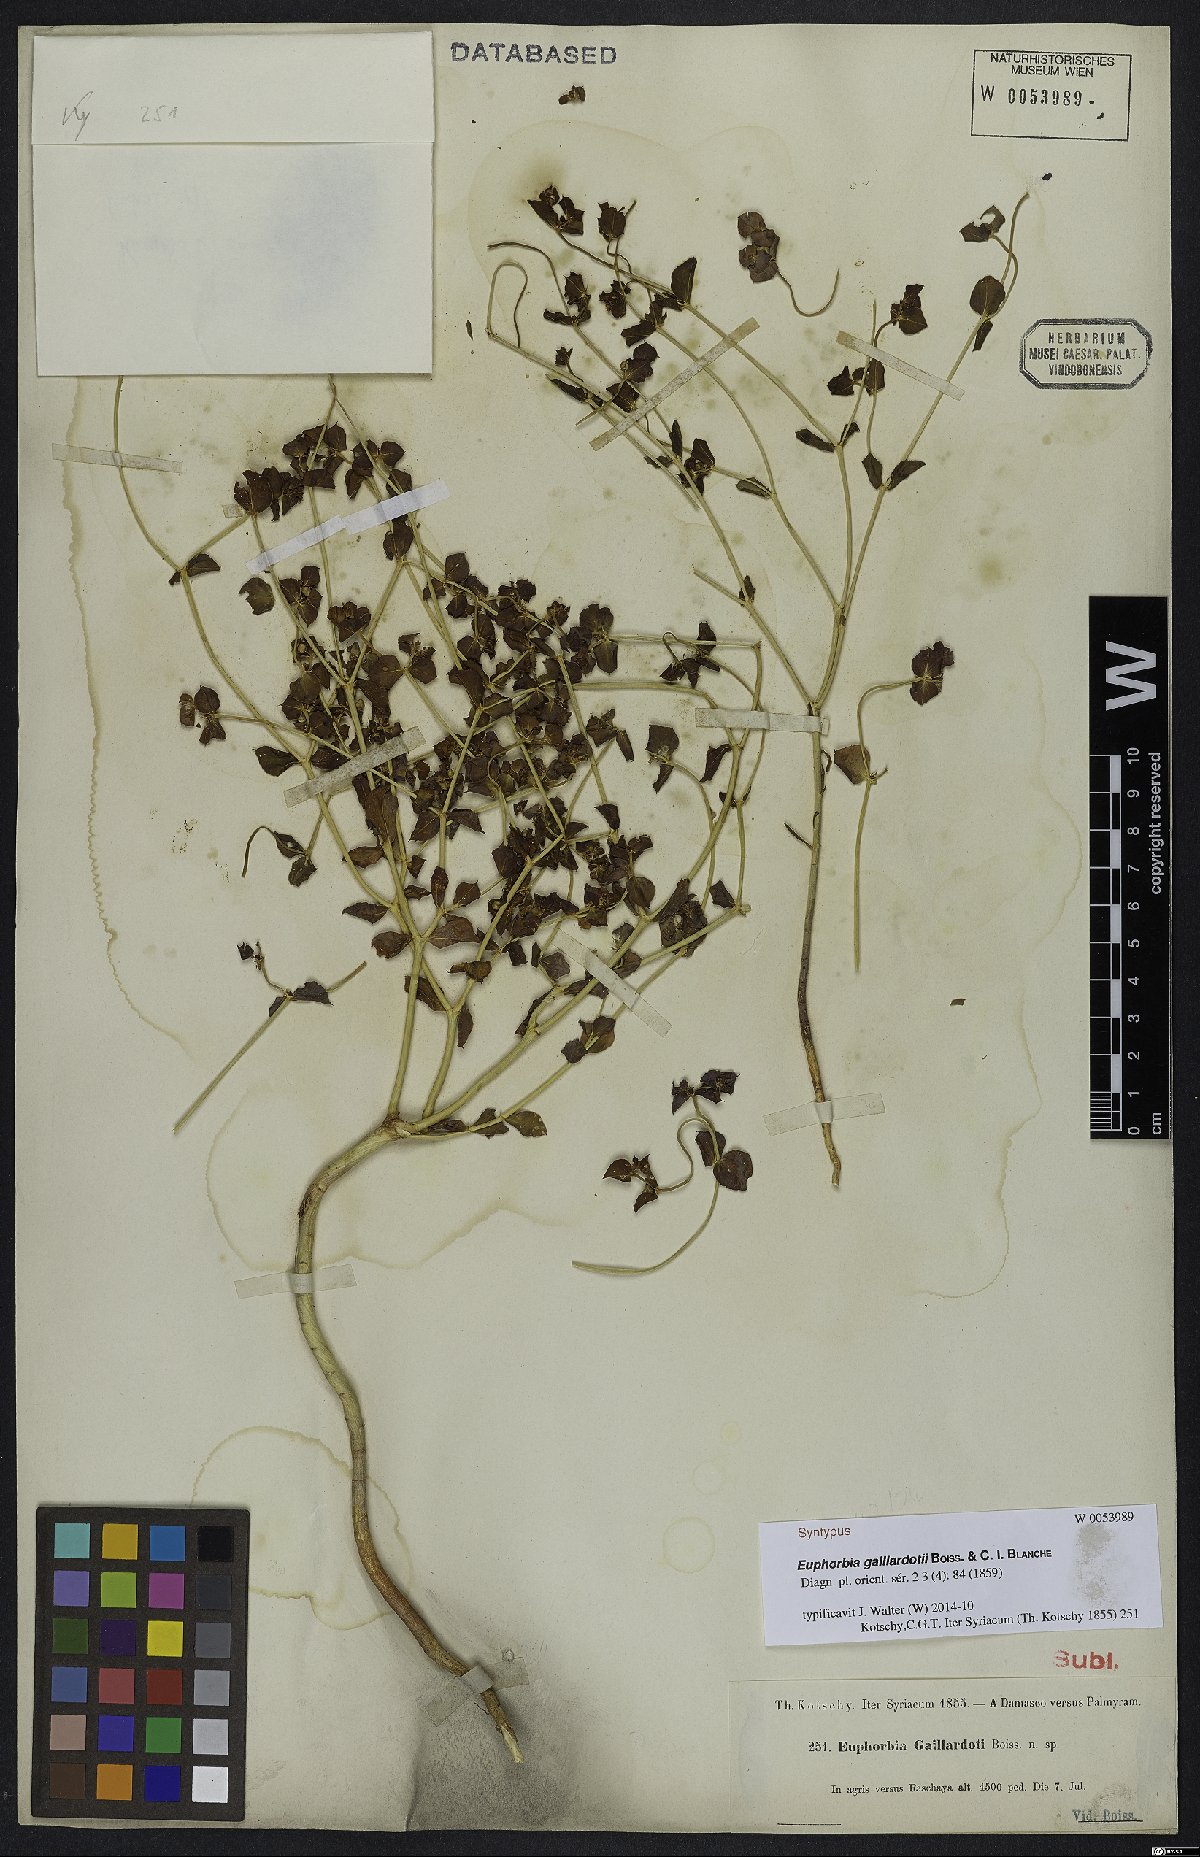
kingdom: Plantae
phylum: Tracheophyta
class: Liliopsida
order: Asparagales
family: Orchidaceae
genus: Habenaria
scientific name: Habenaria crucifera
